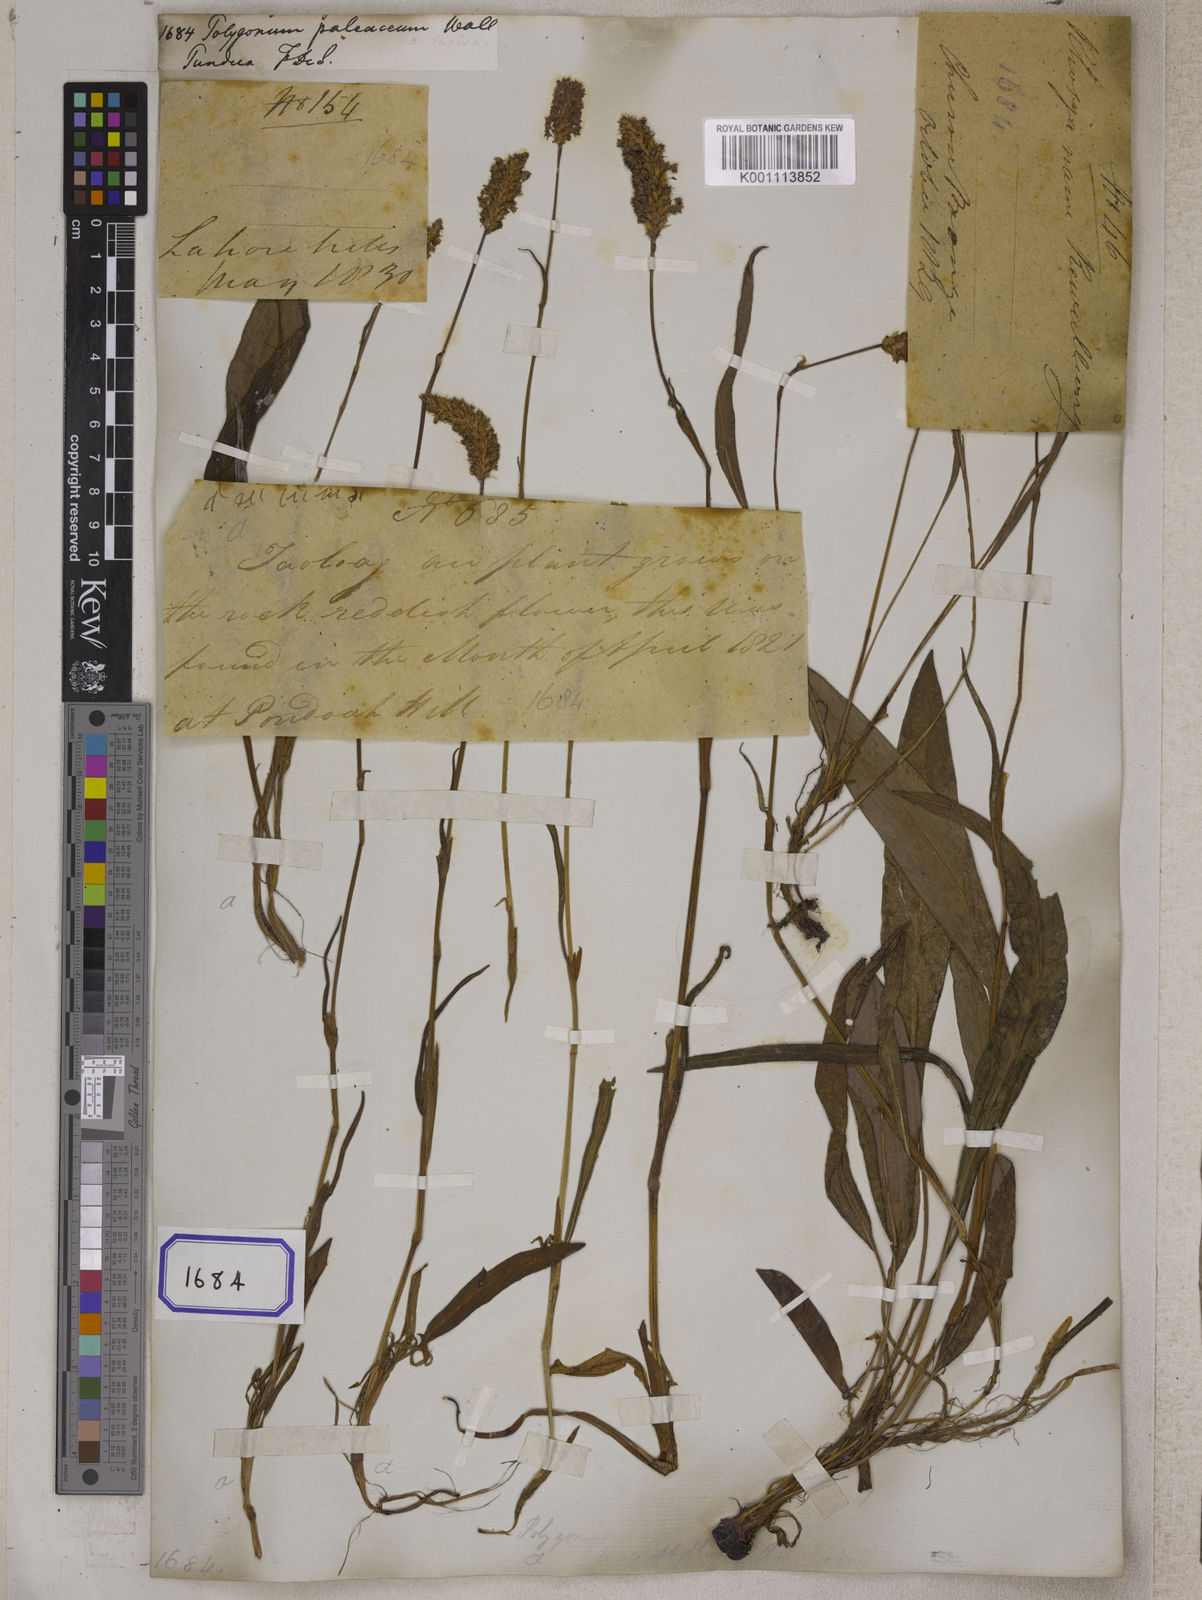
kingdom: Plantae
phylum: Tracheophyta
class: Magnoliopsida
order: Caryophyllales
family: Polygonaceae
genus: Polygonum
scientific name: Polygonum
